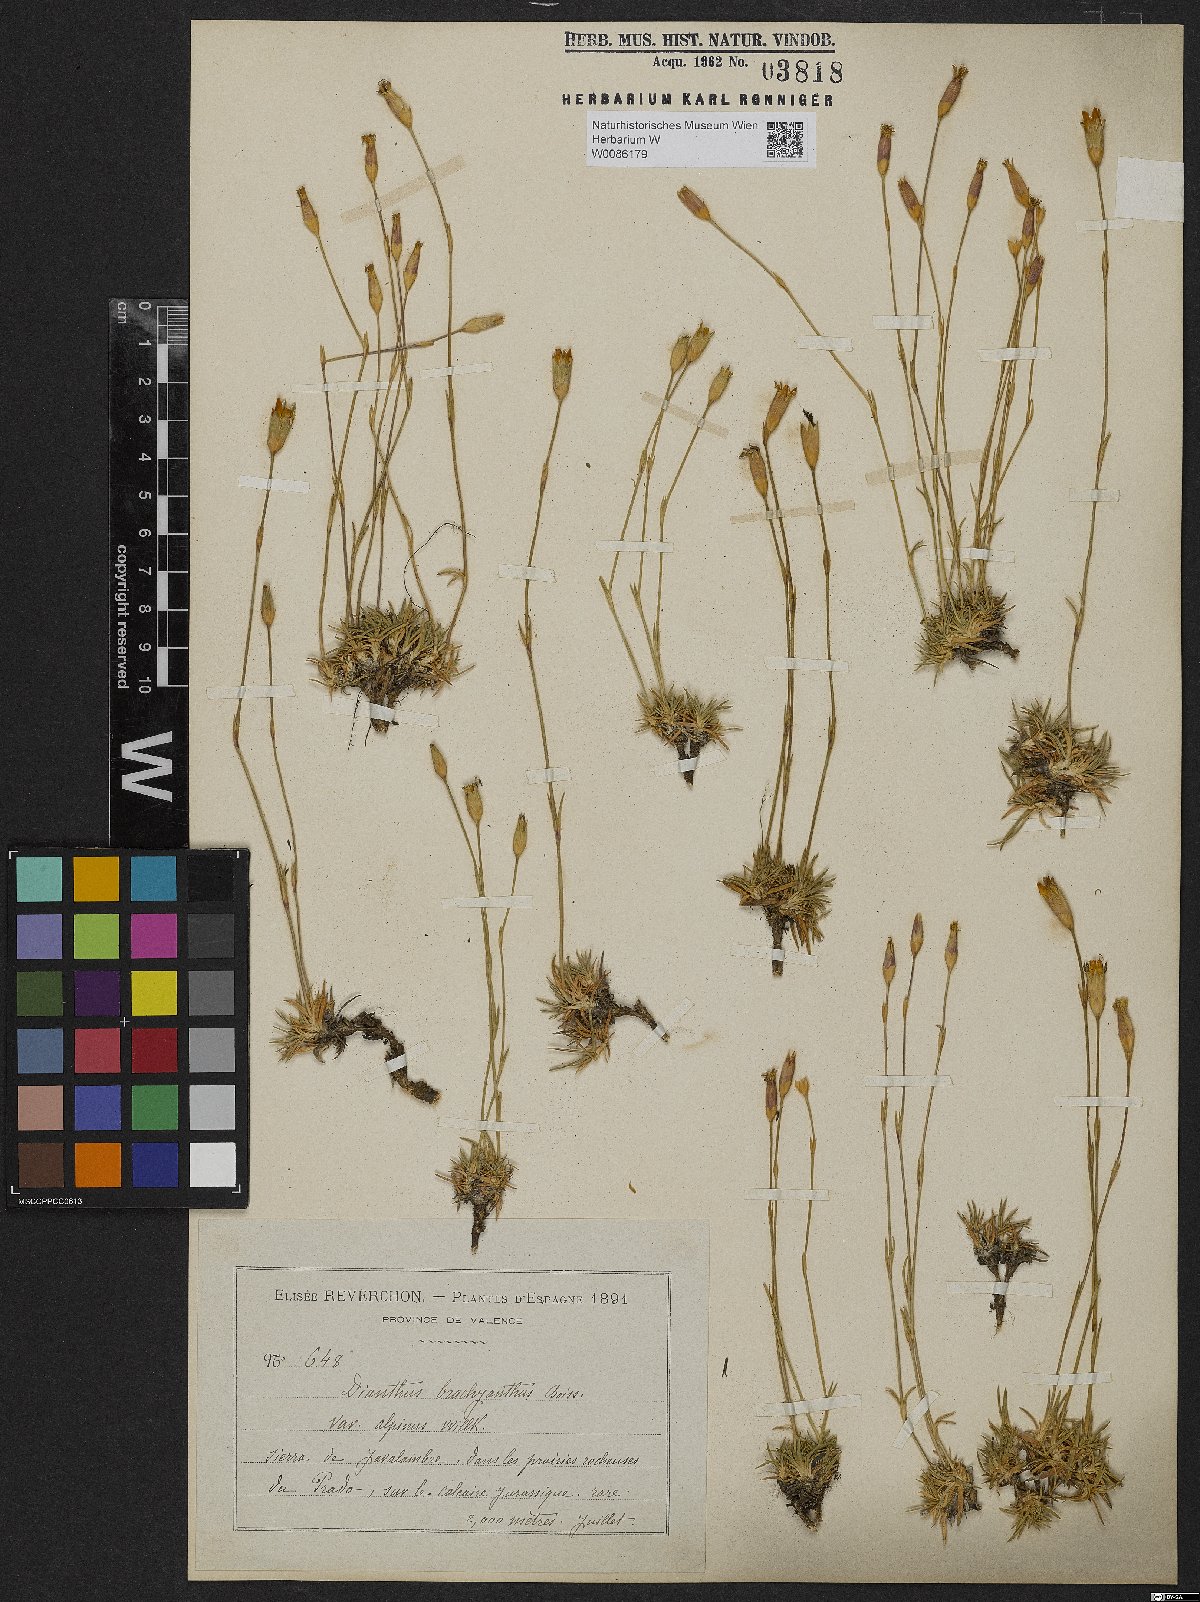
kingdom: Plantae
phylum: Tracheophyta
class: Magnoliopsida
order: Caryophyllales
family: Caryophyllaceae
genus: Dianthus
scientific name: Dianthus subacaulis
